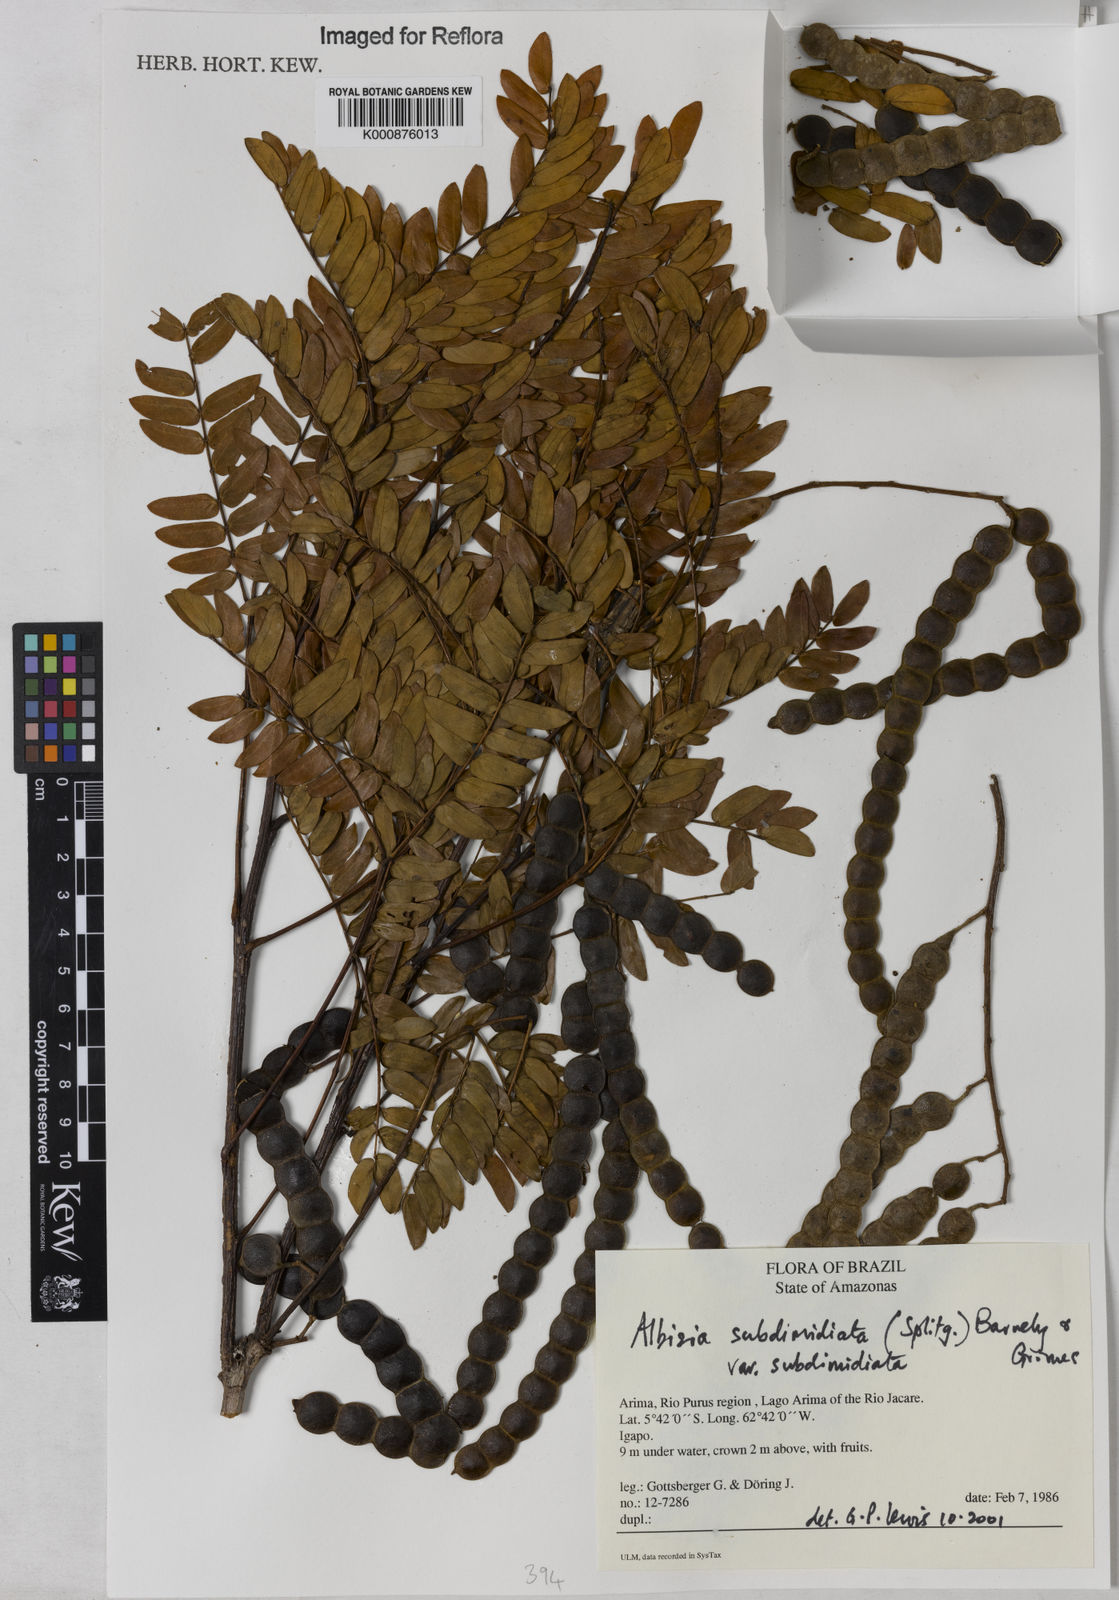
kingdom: Plantae
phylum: Tracheophyta
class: Magnoliopsida
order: Fabales
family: Fabaceae
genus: Albizia
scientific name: Albizia subdimidiata
